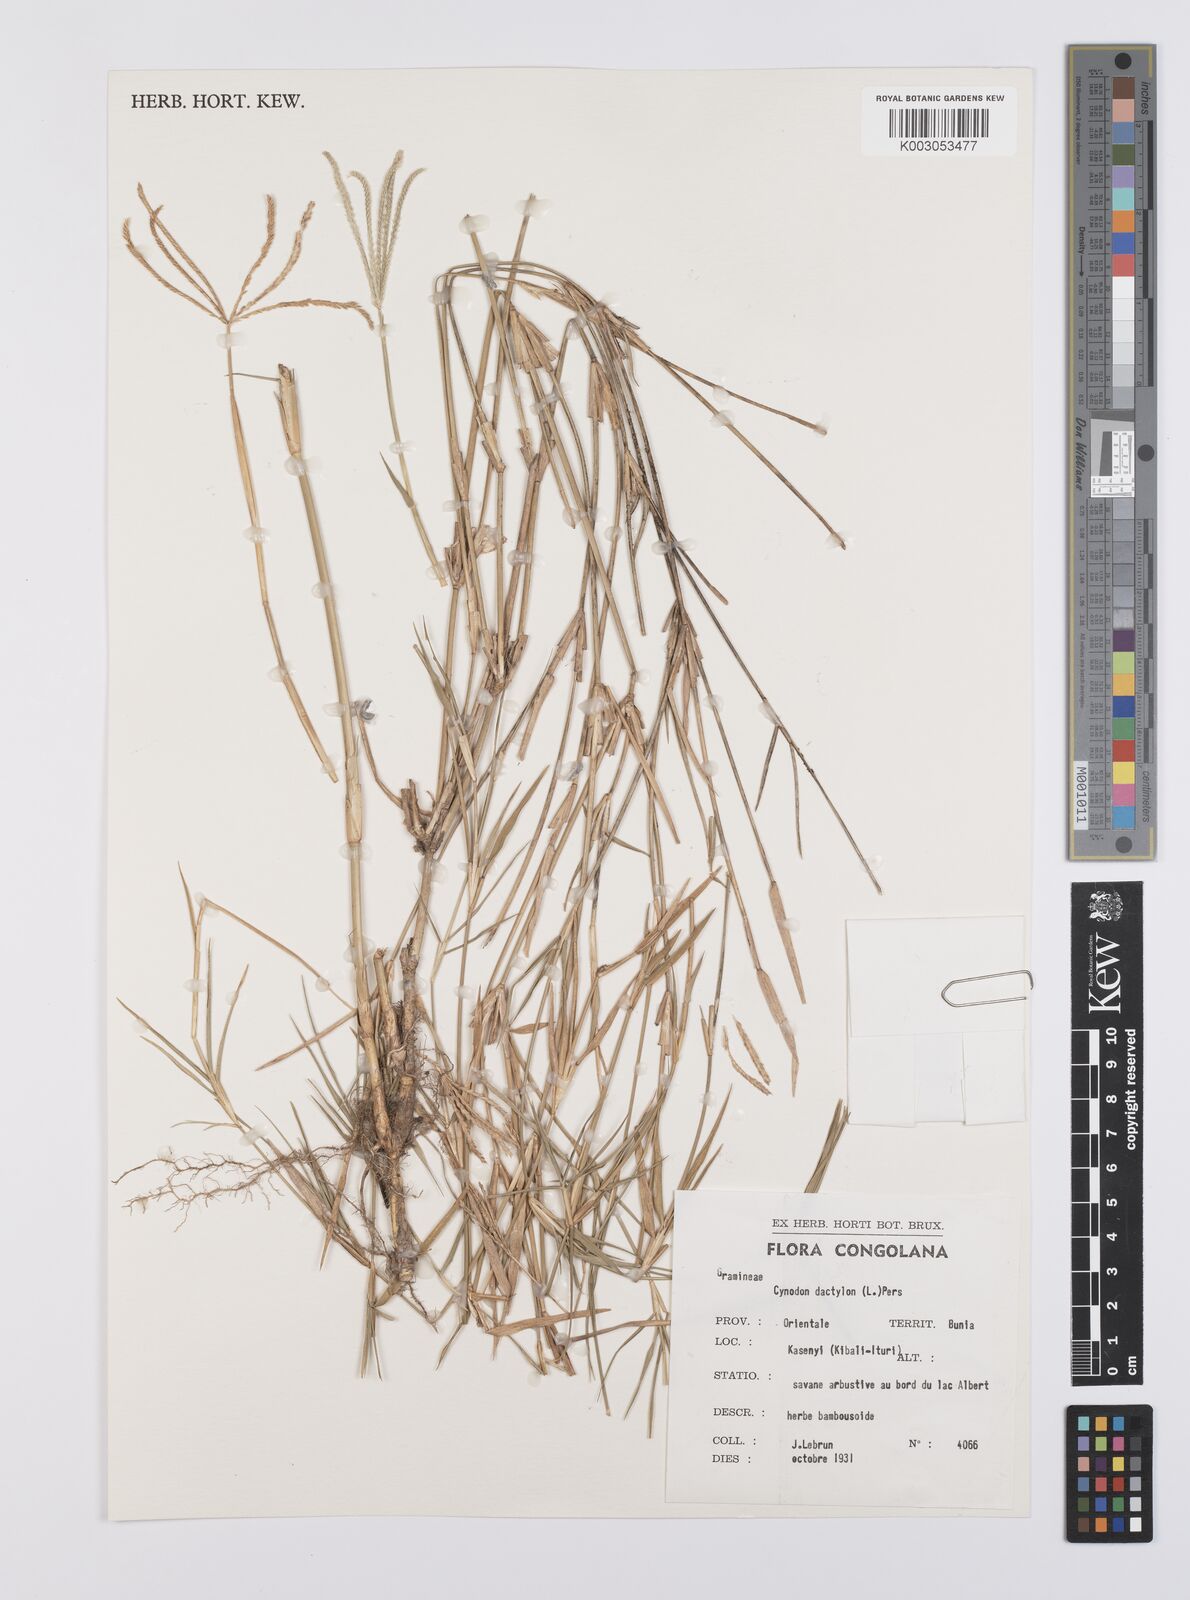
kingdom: Plantae
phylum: Tracheophyta
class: Liliopsida
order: Poales
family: Poaceae
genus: Cynodon
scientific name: Cynodon dactylon
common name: Bermuda grass
